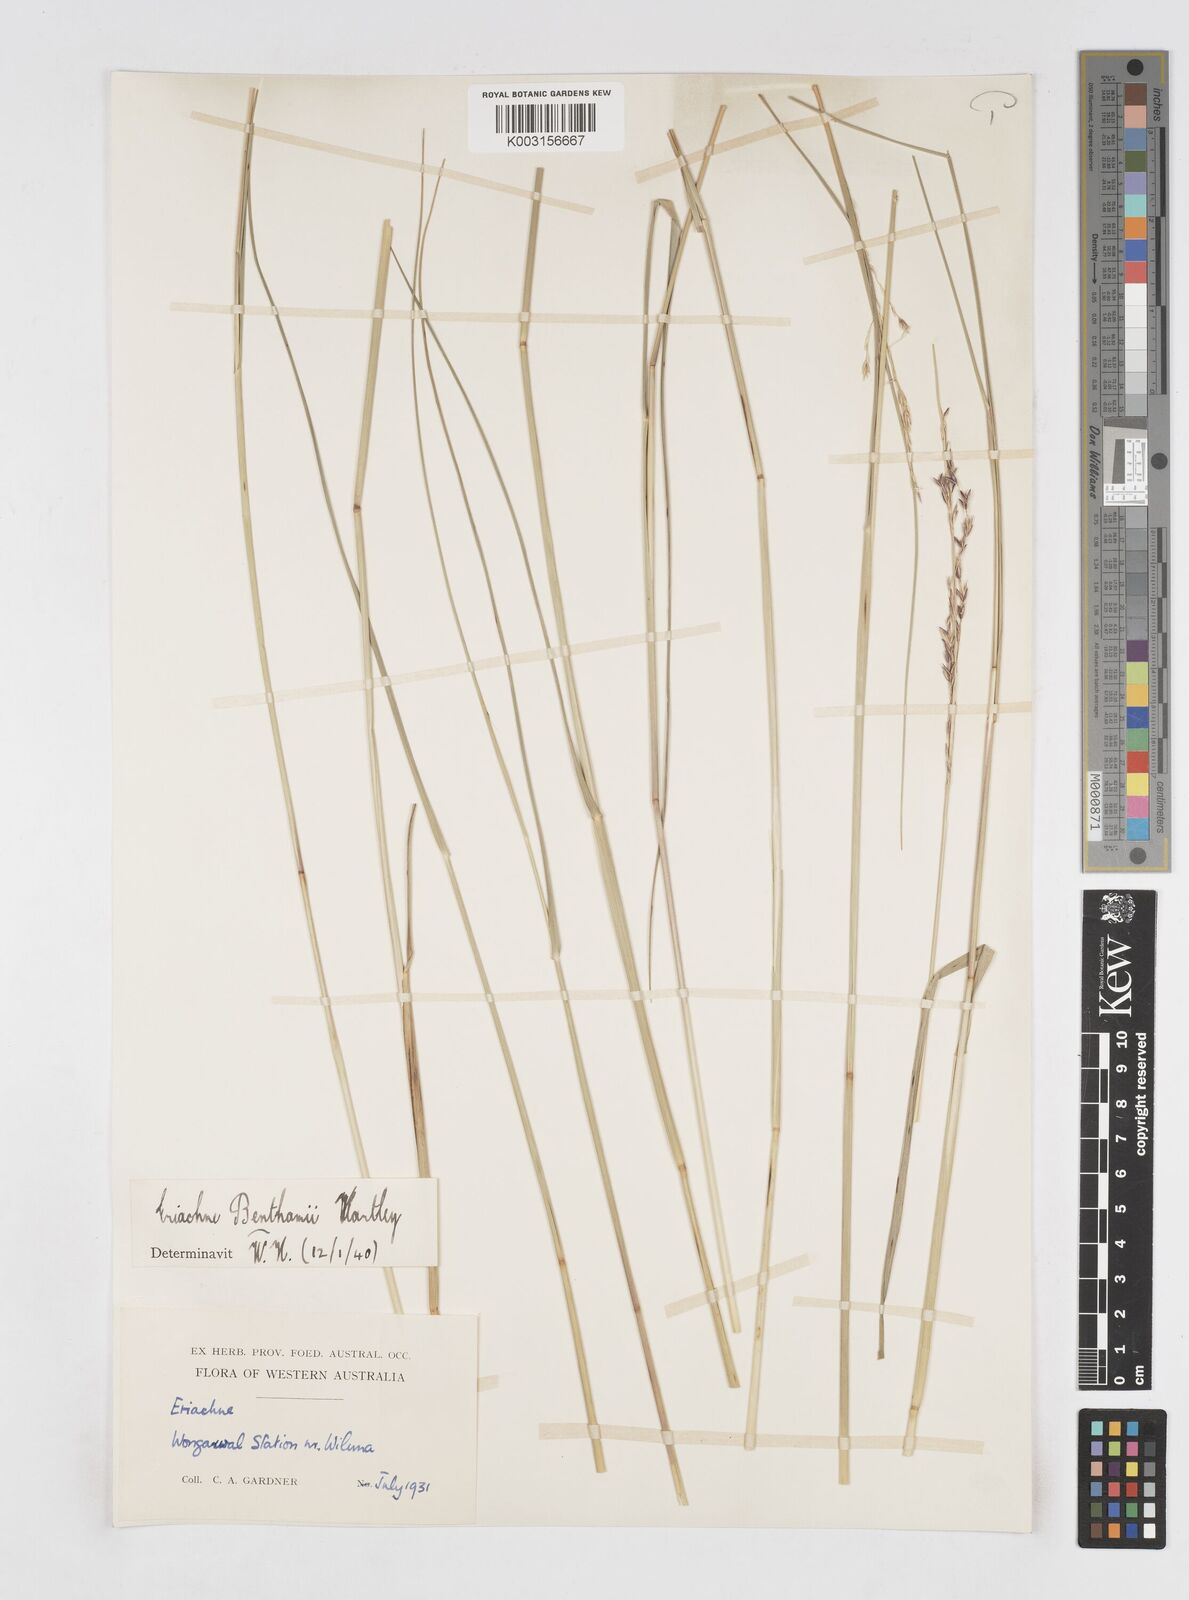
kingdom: Plantae
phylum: Tracheophyta
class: Liliopsida
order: Poales
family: Poaceae
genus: Eriachne
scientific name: Eriachne benthamii
